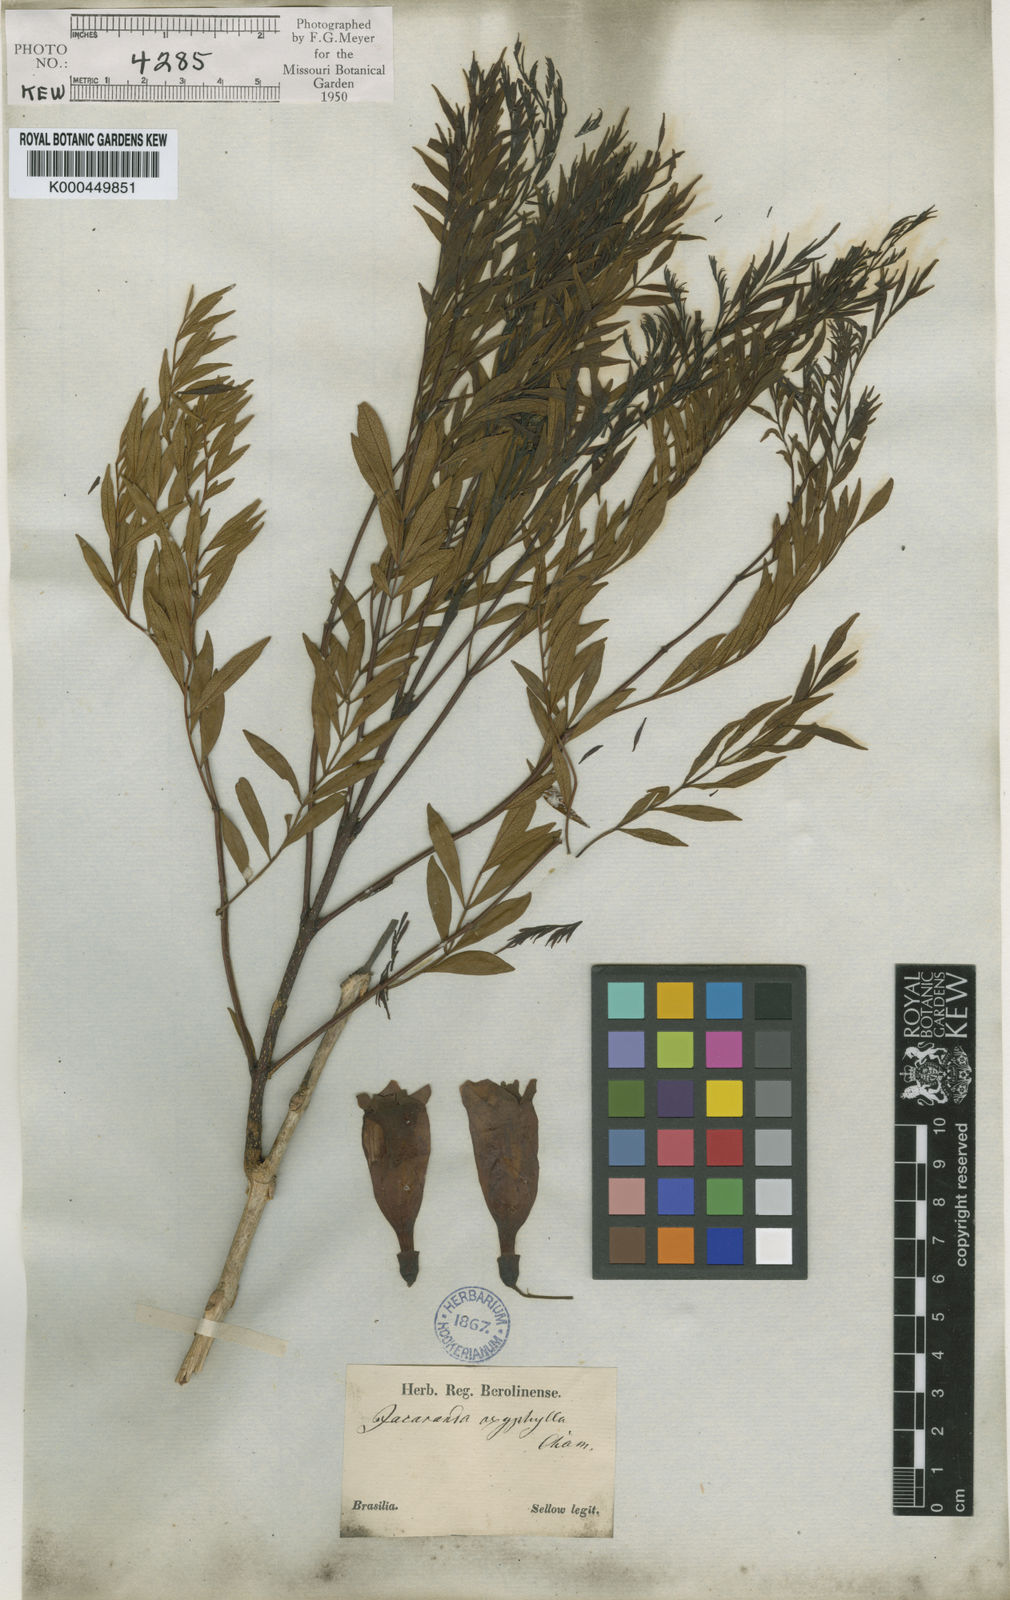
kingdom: Plantae
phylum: Tracheophyta
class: Magnoliopsida
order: Lamiales
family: Bignoniaceae
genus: Jacaranda
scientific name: Jacaranda caroba
